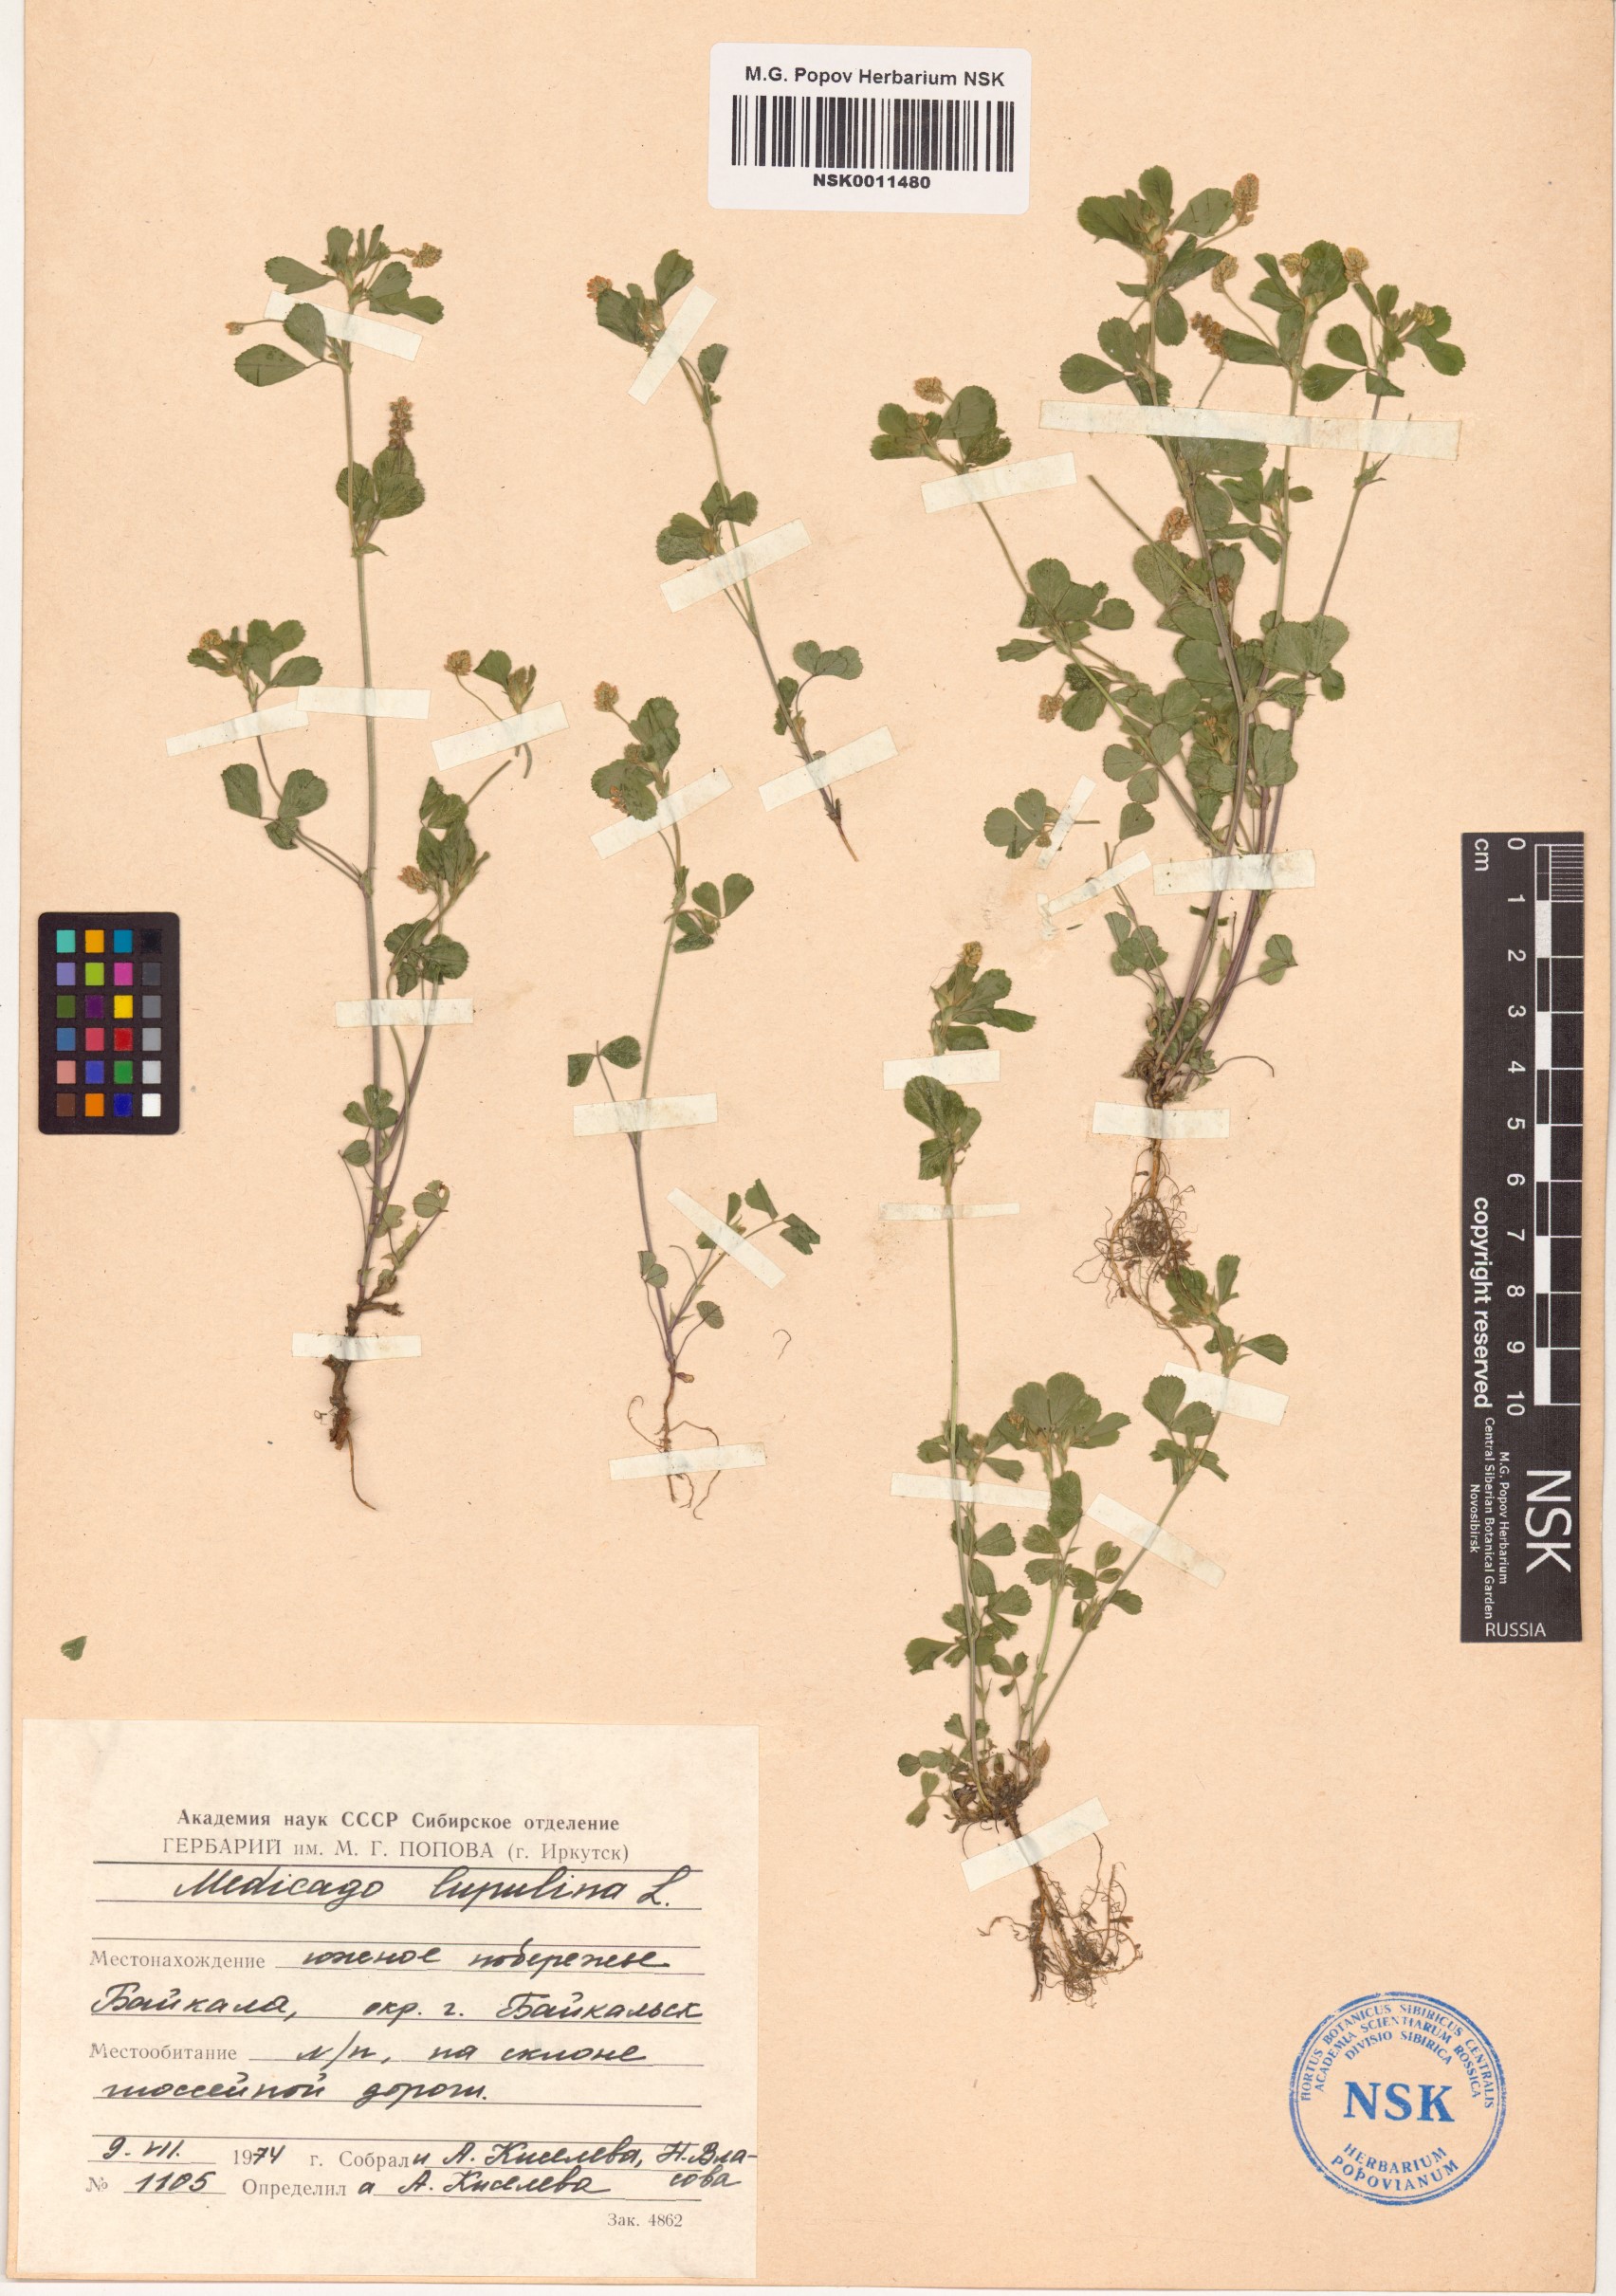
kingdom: Plantae
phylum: Tracheophyta
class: Magnoliopsida
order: Fabales
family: Fabaceae
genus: Medicago
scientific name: Medicago lupulina
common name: Black medick
